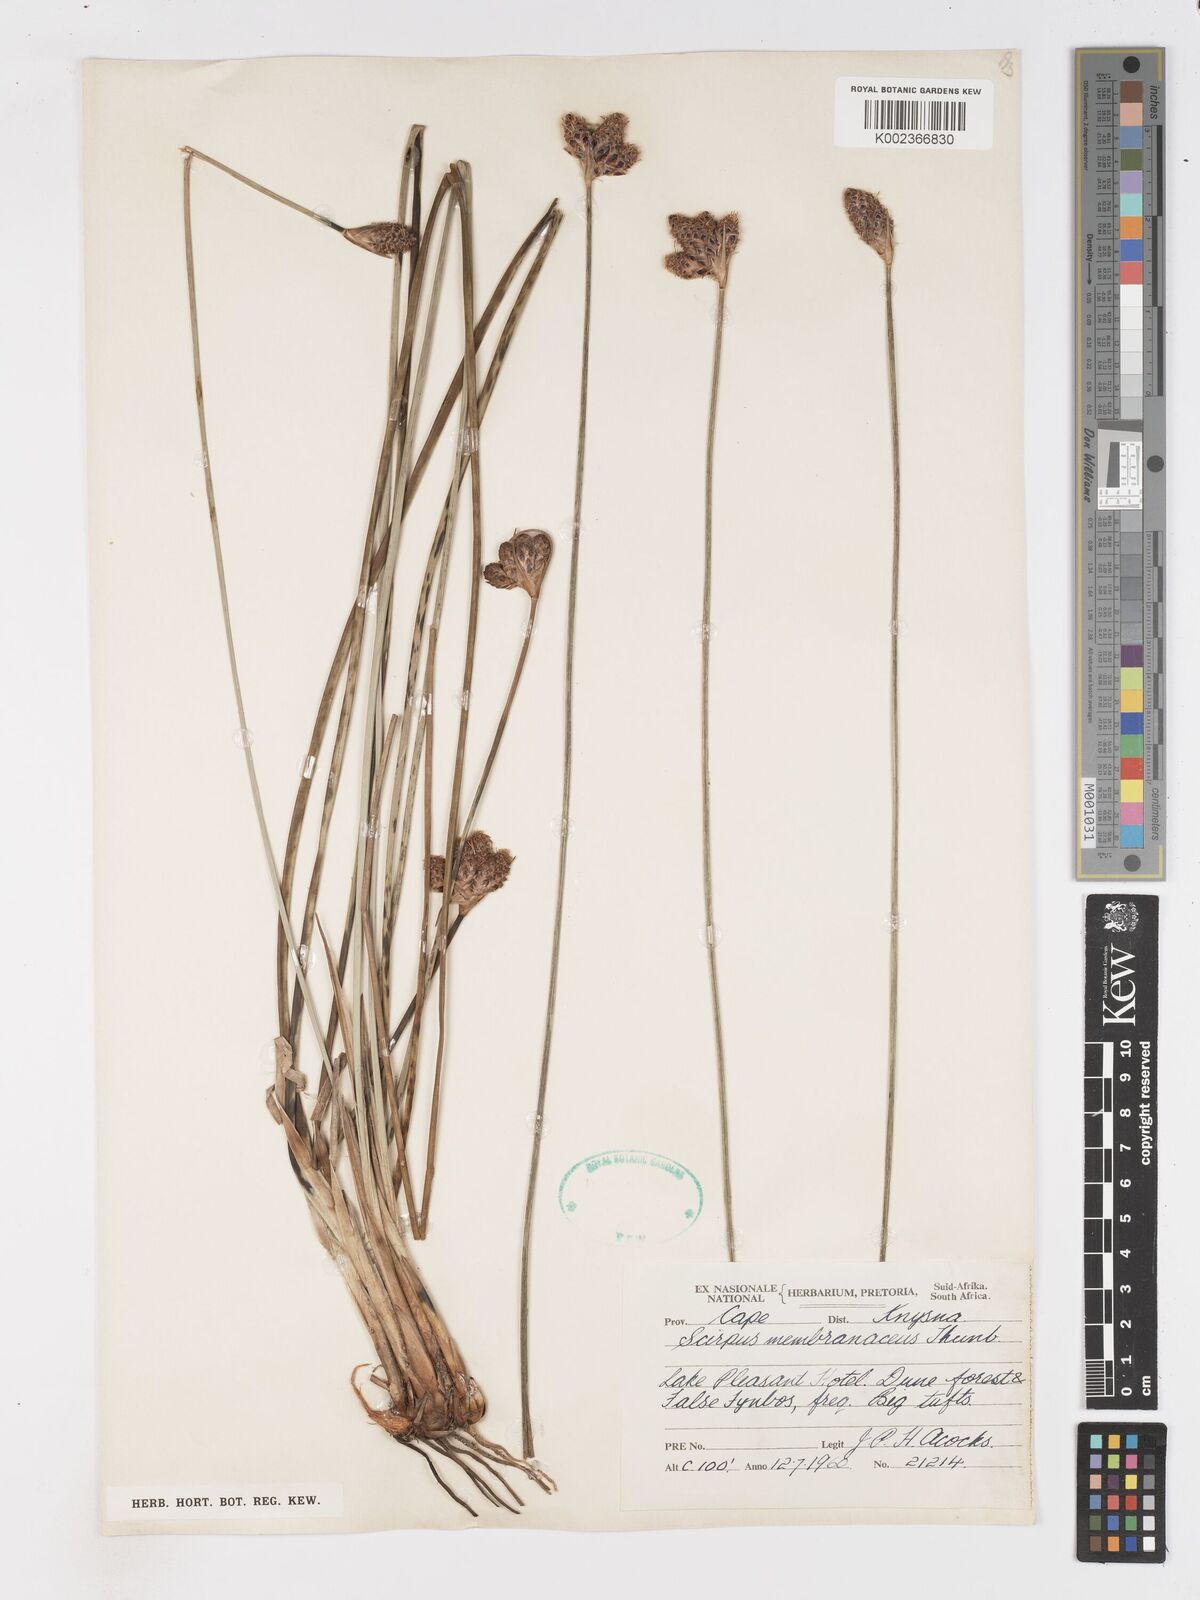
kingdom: Plantae
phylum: Tracheophyta
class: Liliopsida
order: Poales
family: Cyperaceae
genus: Hellmuthia
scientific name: Hellmuthia membranacea
